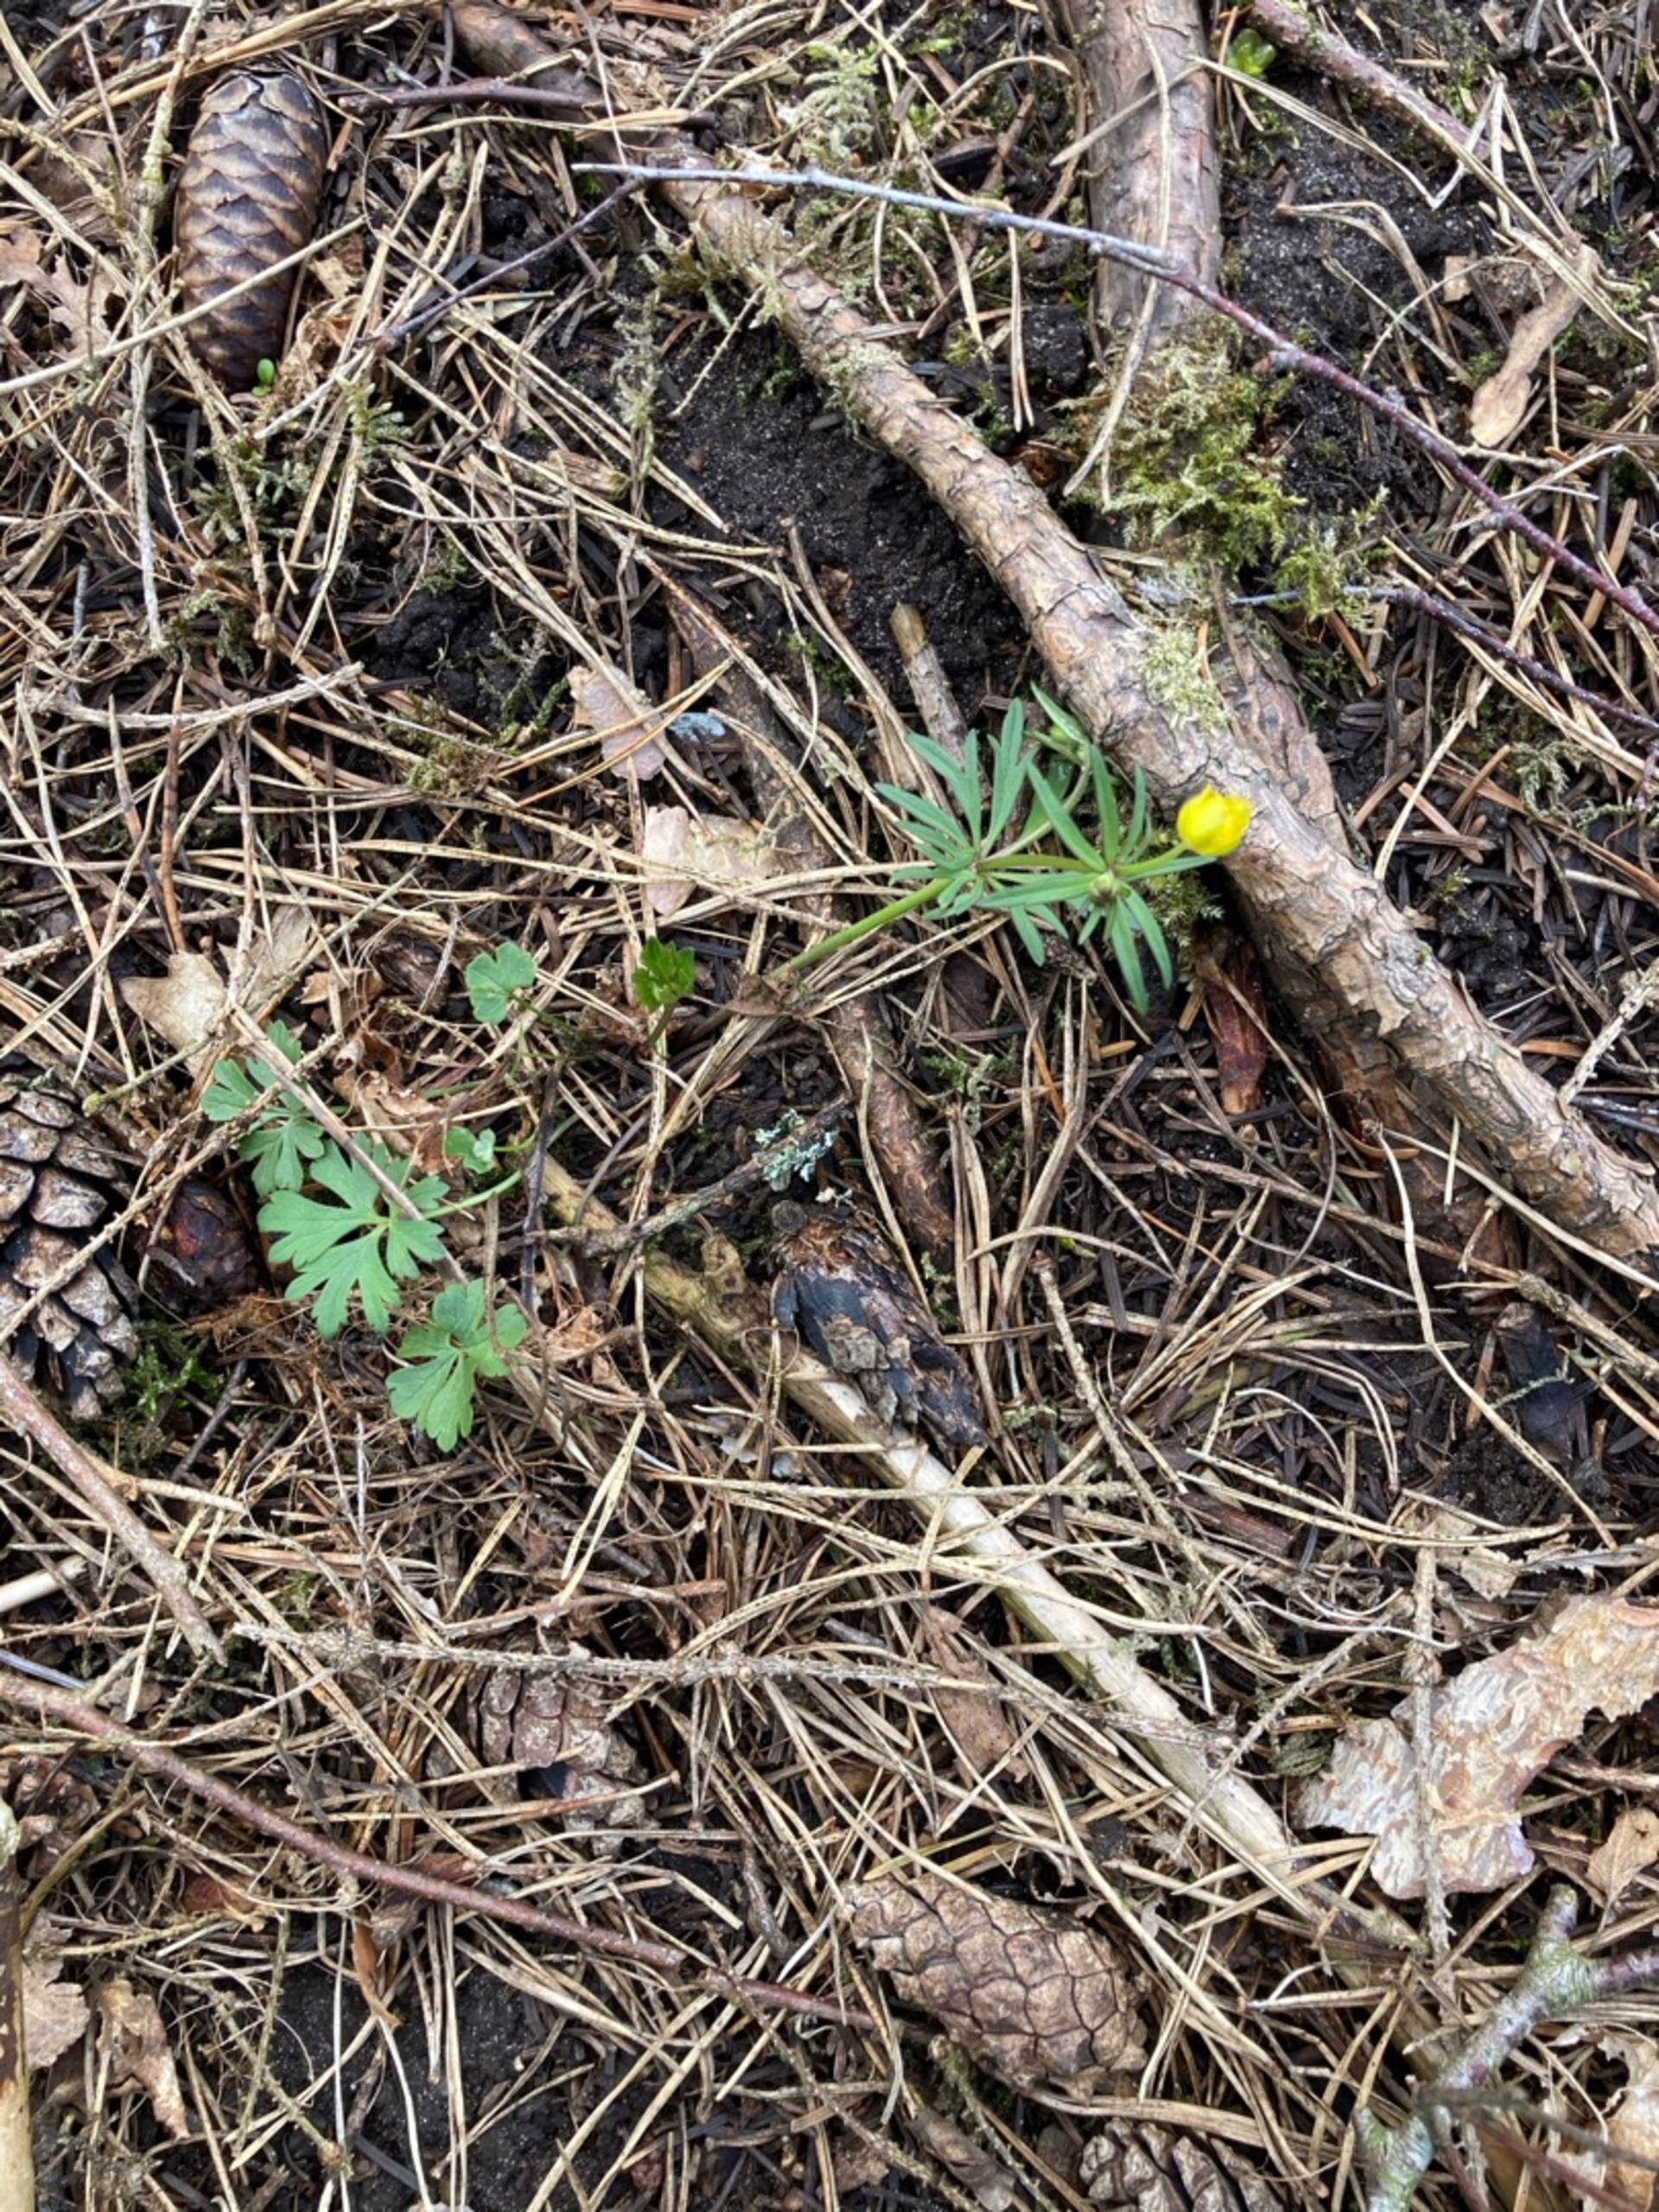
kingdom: Plantae
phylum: Tracheophyta
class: Magnoliopsida
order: Ranunculales
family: Ranunculaceae
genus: Ranunculus
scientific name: Ranunculus auricomus
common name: Nyrebladet ranunkel
